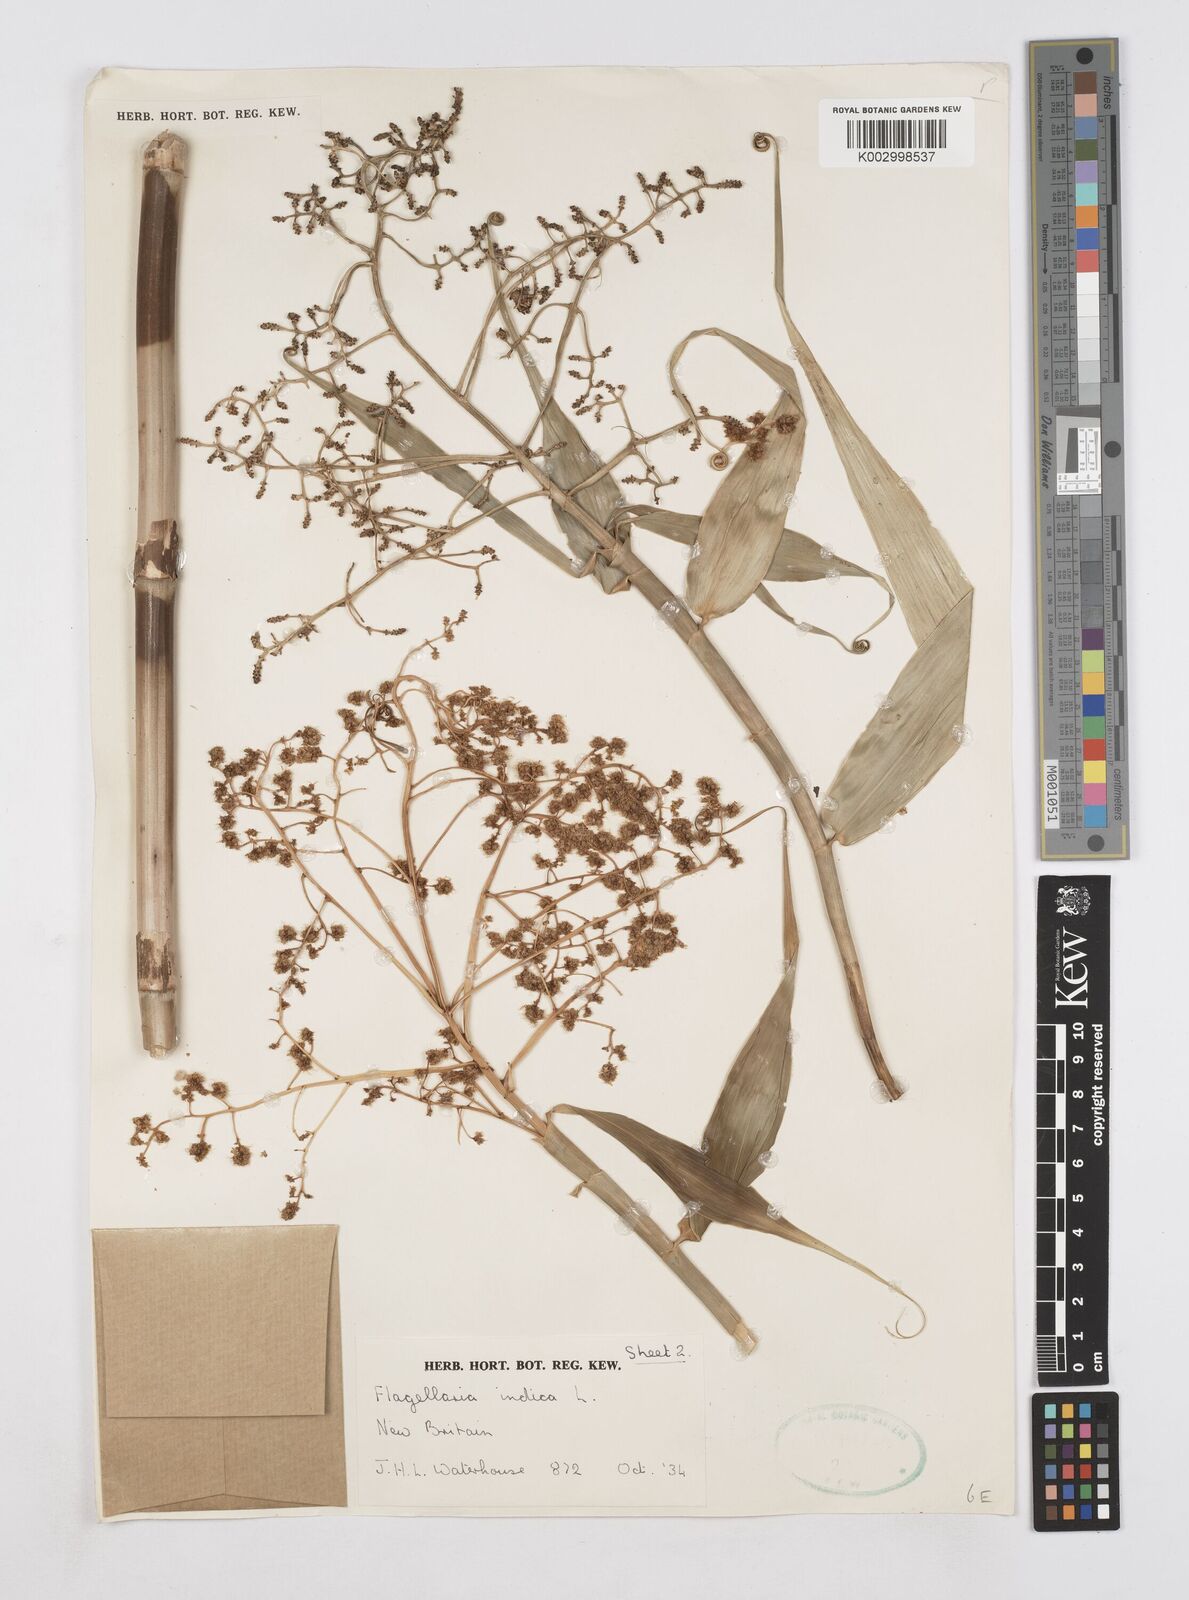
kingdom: Plantae
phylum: Tracheophyta
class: Liliopsida
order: Poales
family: Flagellariaceae
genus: Flagellaria
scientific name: Flagellaria indica
